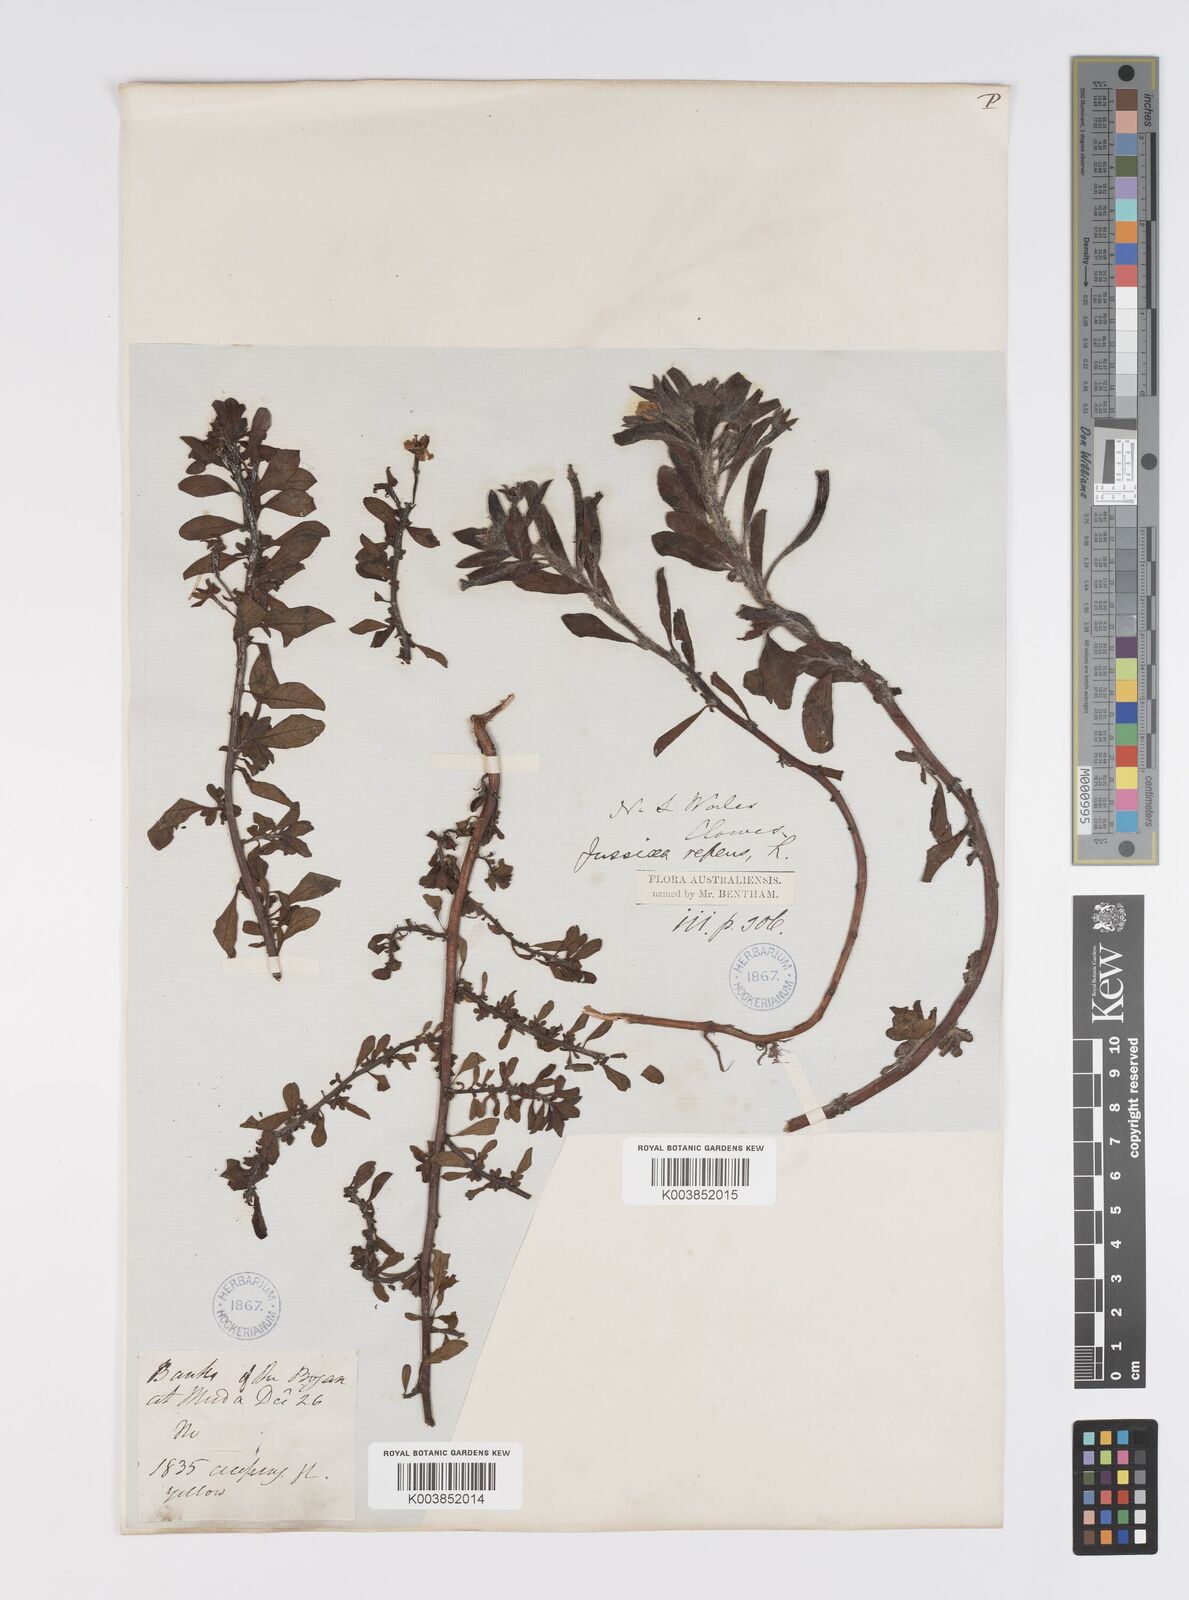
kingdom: Plantae
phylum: Tracheophyta
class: Magnoliopsida
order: Myrtales
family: Onagraceae
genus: Ludwigia
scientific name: Ludwigia peploides
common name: Floating primrose-willow
